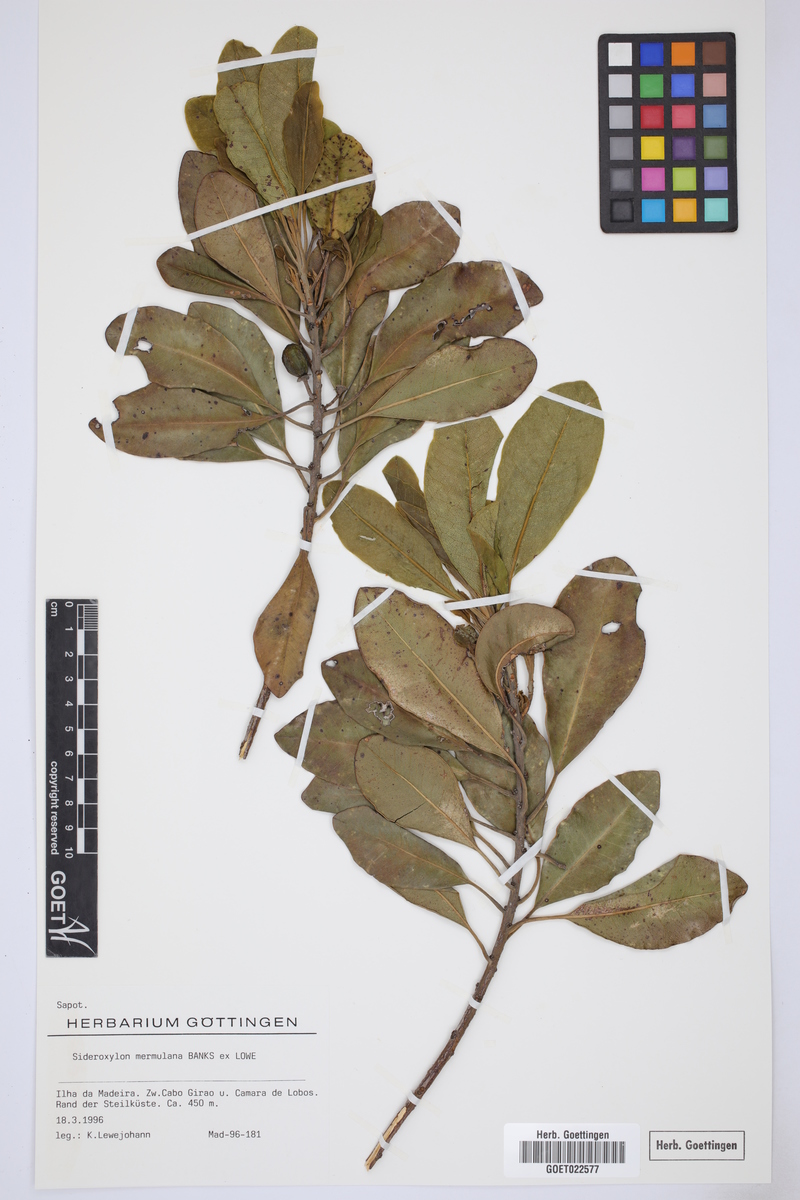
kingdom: Plantae
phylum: Tracheophyta
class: Magnoliopsida
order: Ericales
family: Sapotaceae
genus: Sideroxylon
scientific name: Sideroxylon mirmulano
